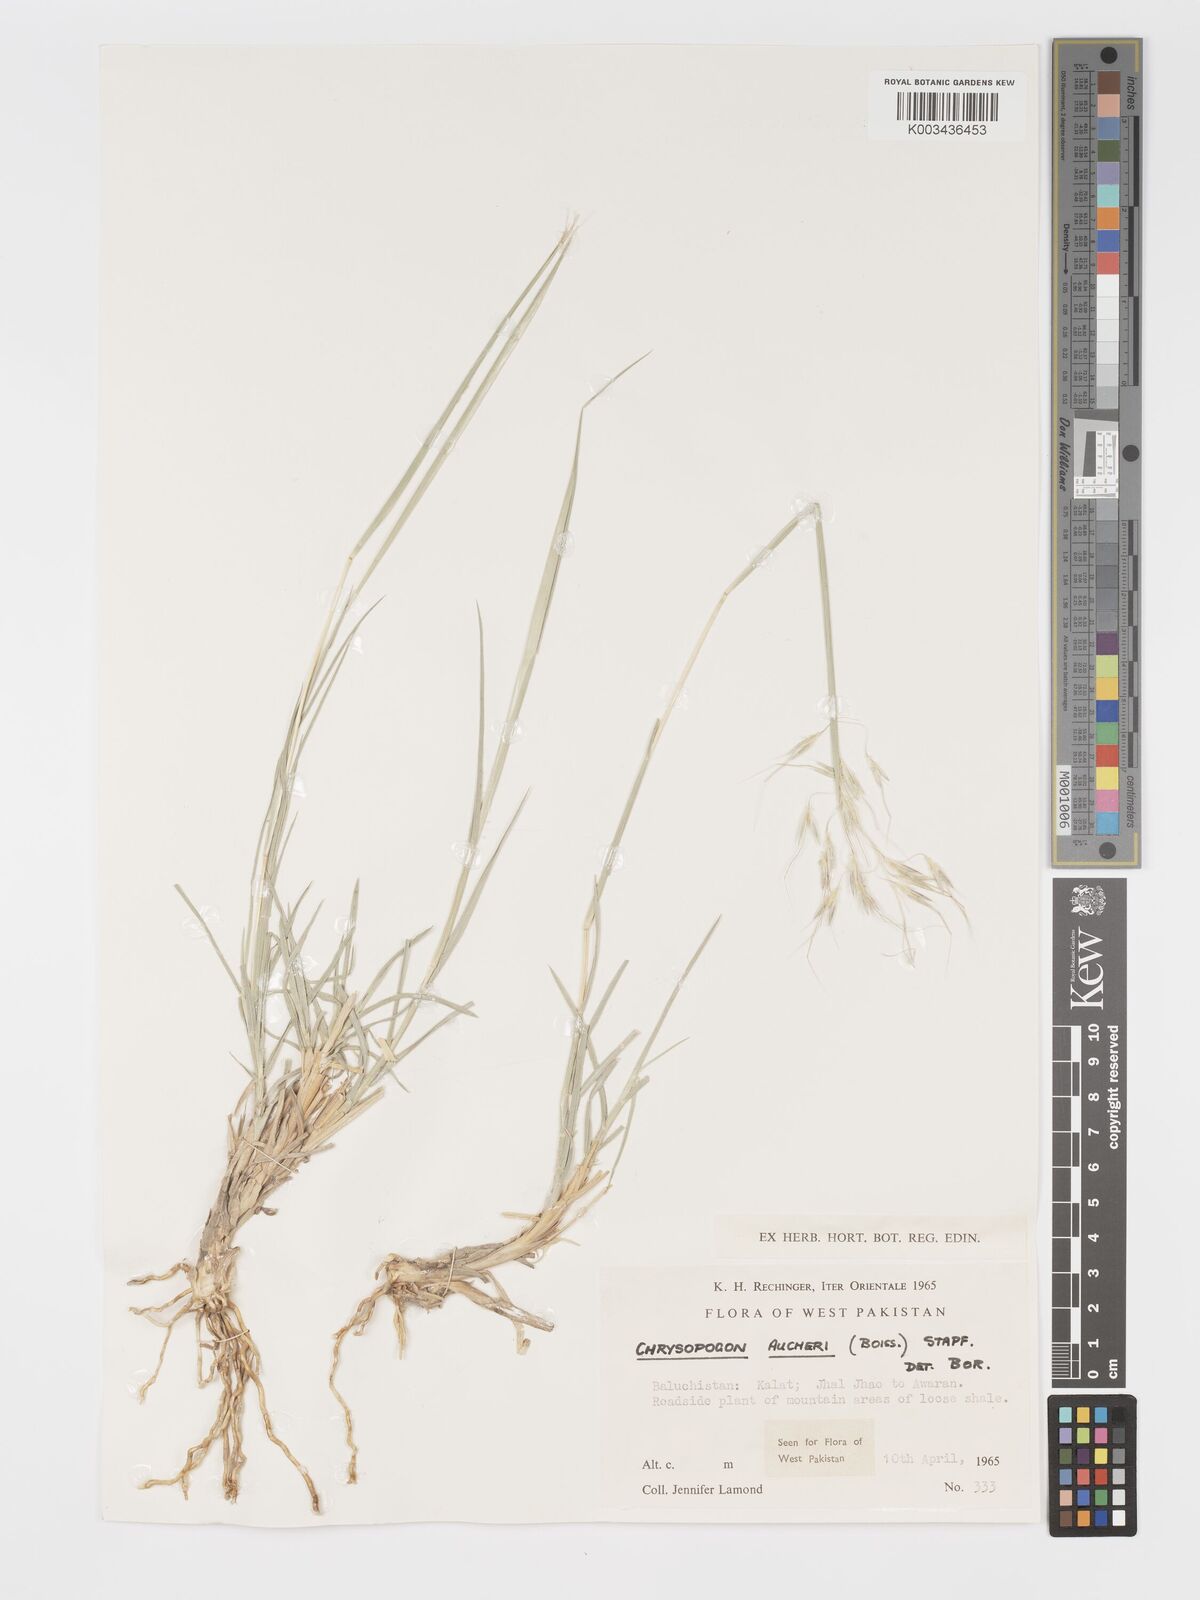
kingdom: Plantae
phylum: Tracheophyta
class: Liliopsida
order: Poales
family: Poaceae
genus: Chrysopogon
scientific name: Chrysopogon aucheri
